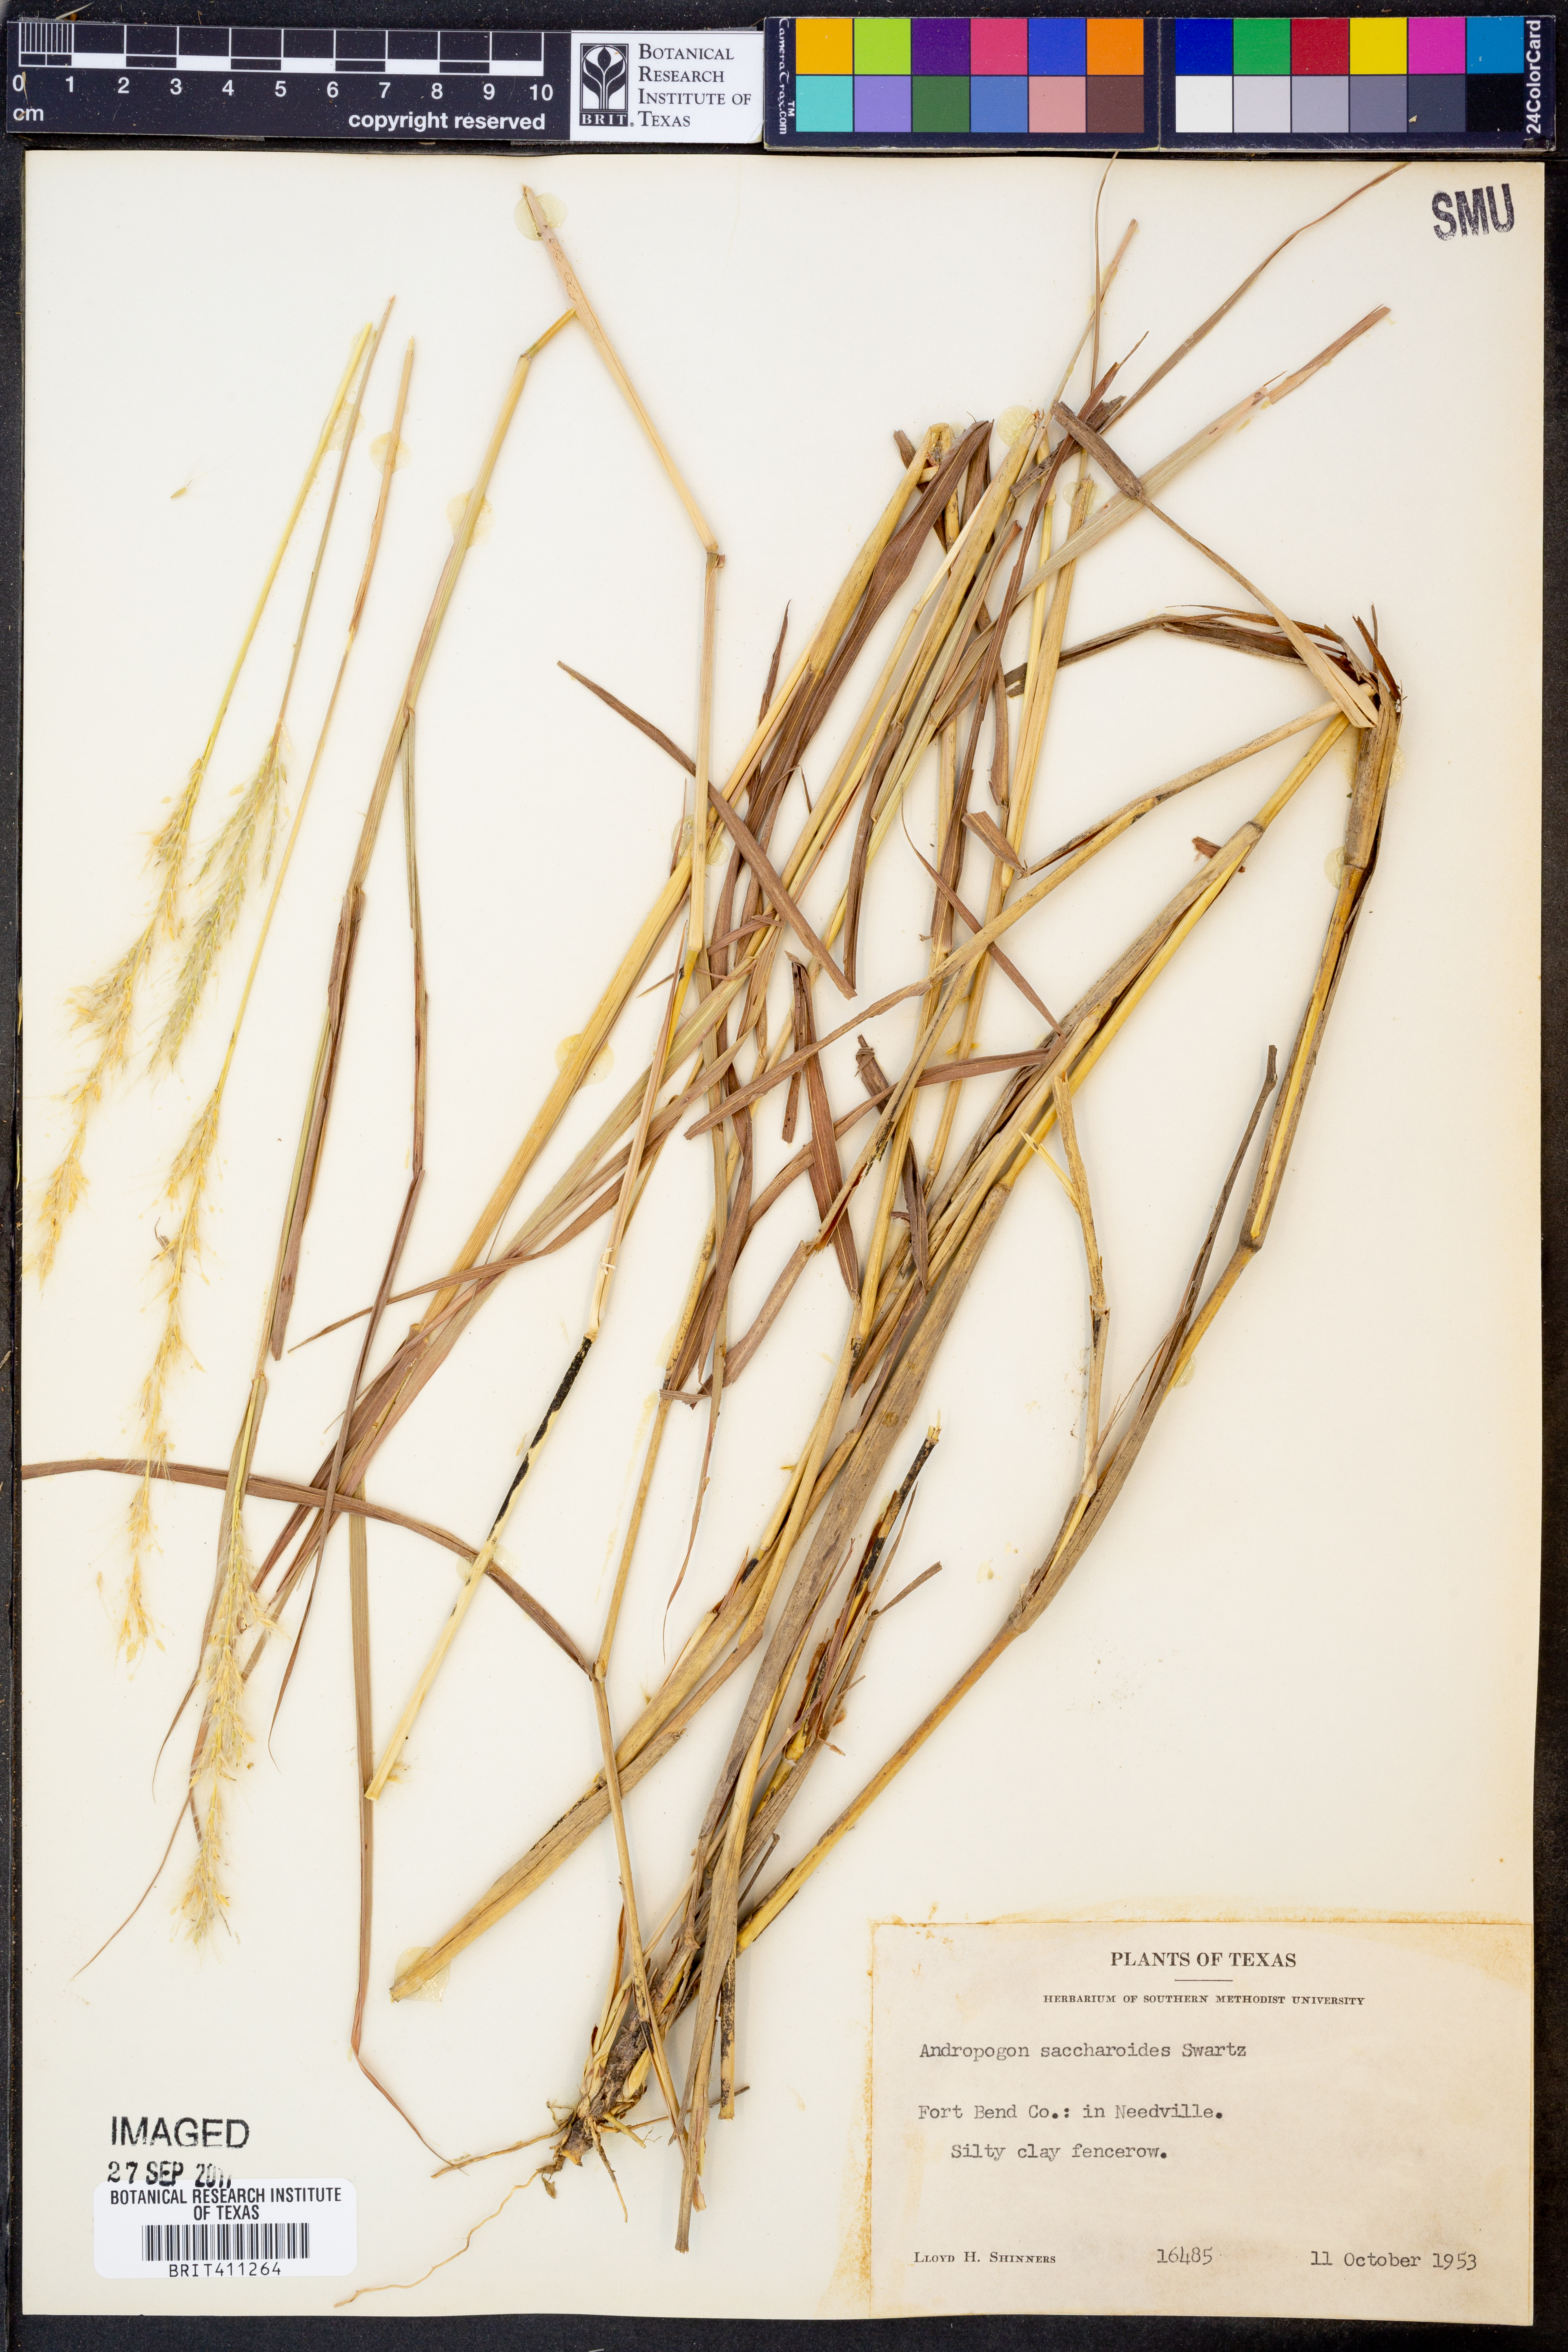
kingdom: Plantae
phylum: Tracheophyta
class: Liliopsida
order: Poales
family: Poaceae
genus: Bothriochloa
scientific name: Bothriochloa saccharoides
